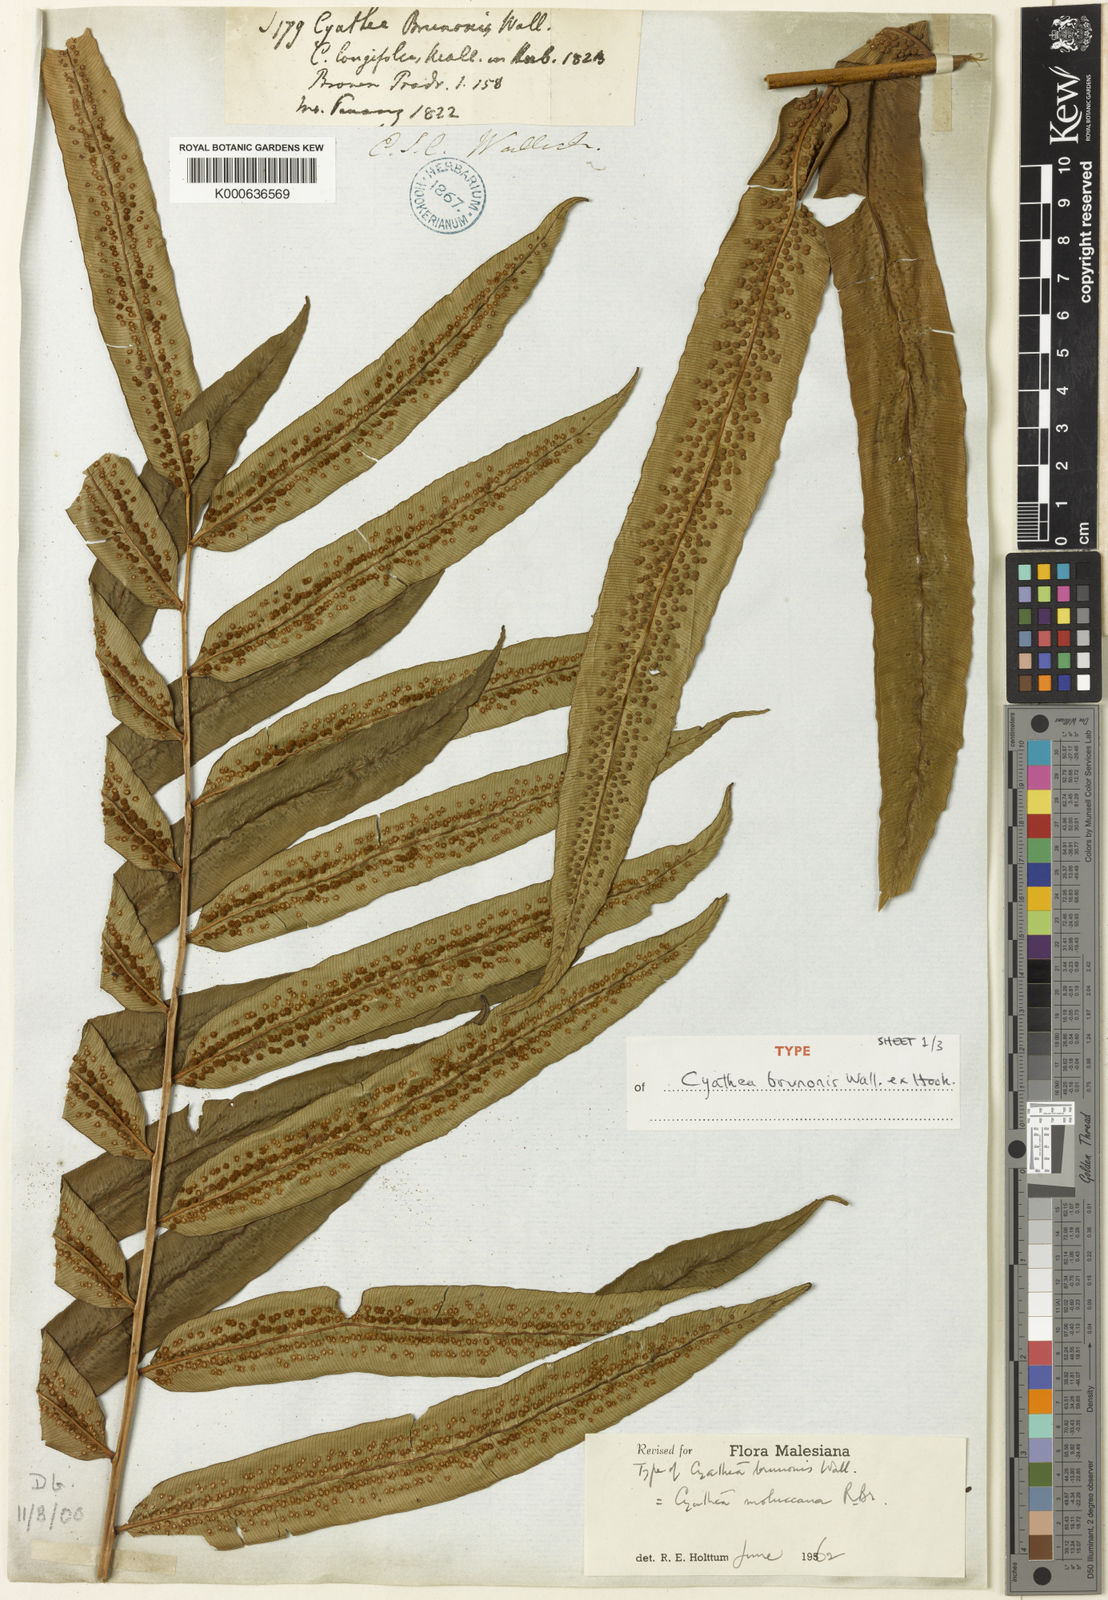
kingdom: Plantae
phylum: Tracheophyta
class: Polypodiopsida
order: Cyatheales
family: Cyatheaceae
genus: Sphaeropteris
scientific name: Sphaeropteris moluccana
